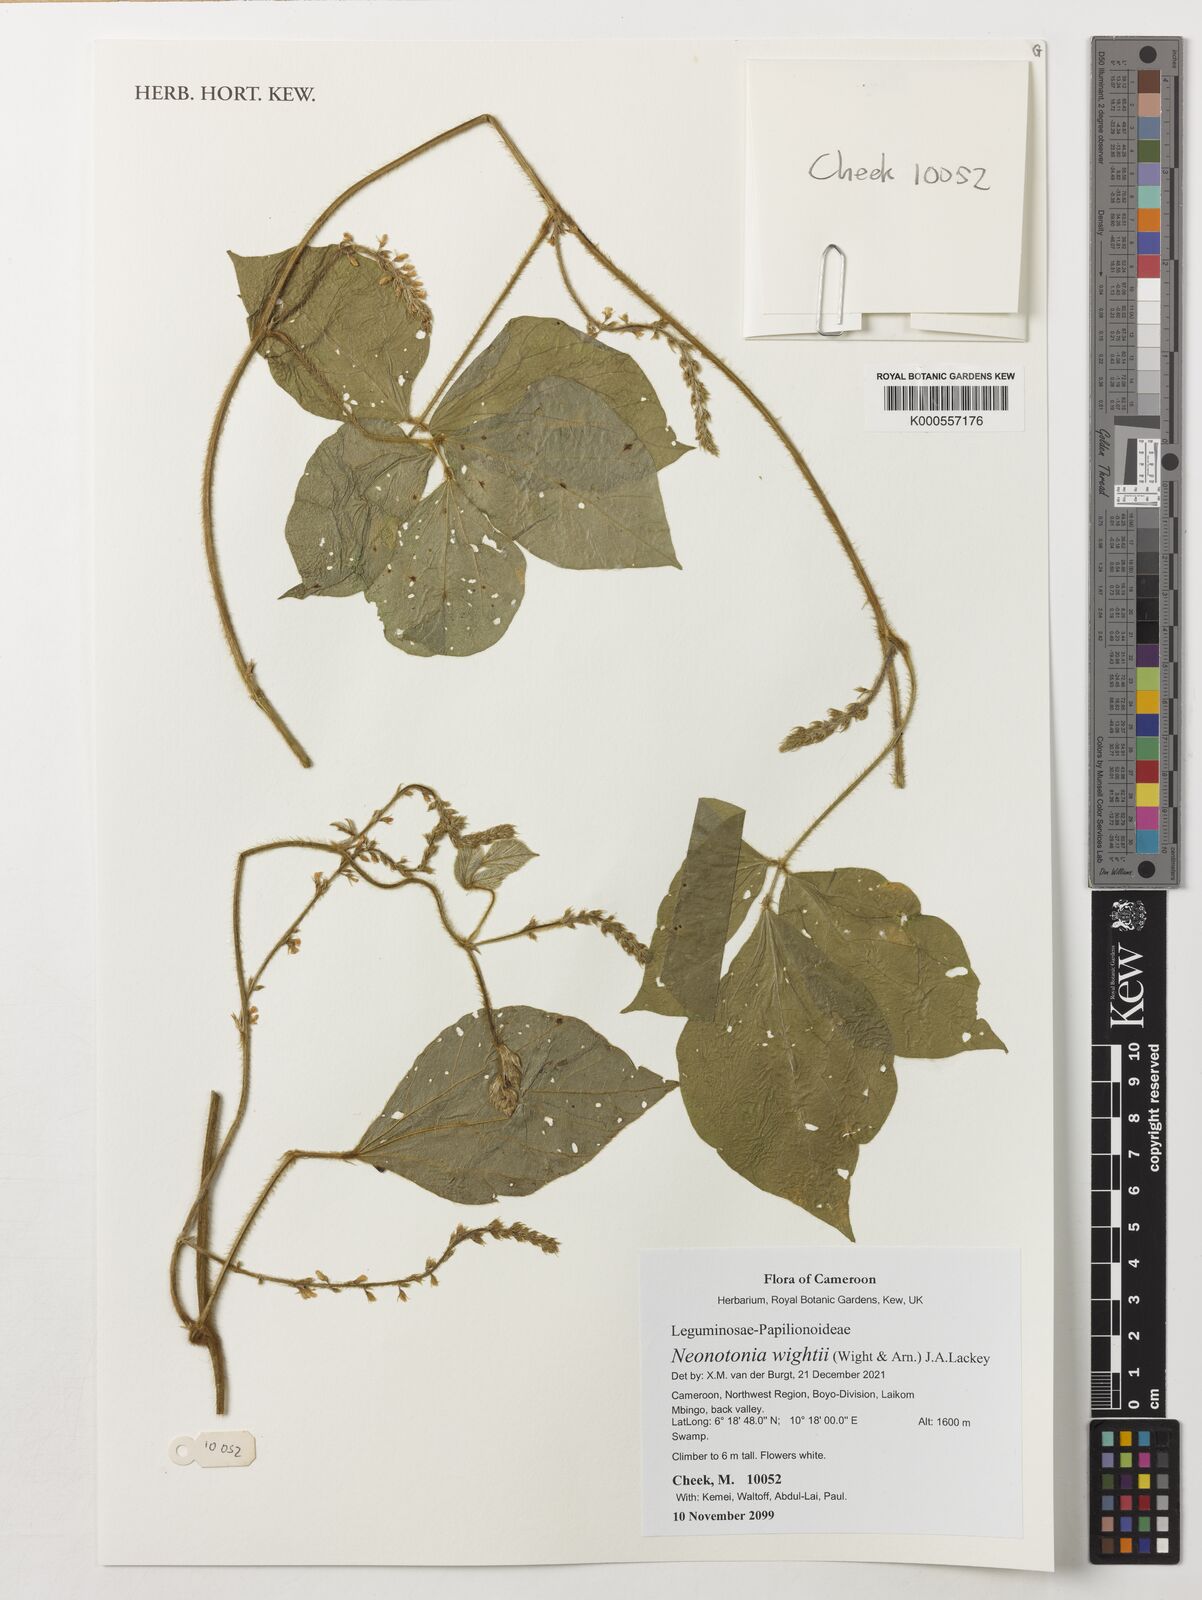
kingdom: Plantae
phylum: Tracheophyta
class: Magnoliopsida
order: Fabales
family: Fabaceae
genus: Neonotonia
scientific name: Neonotonia wightii
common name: Perennial soybean
